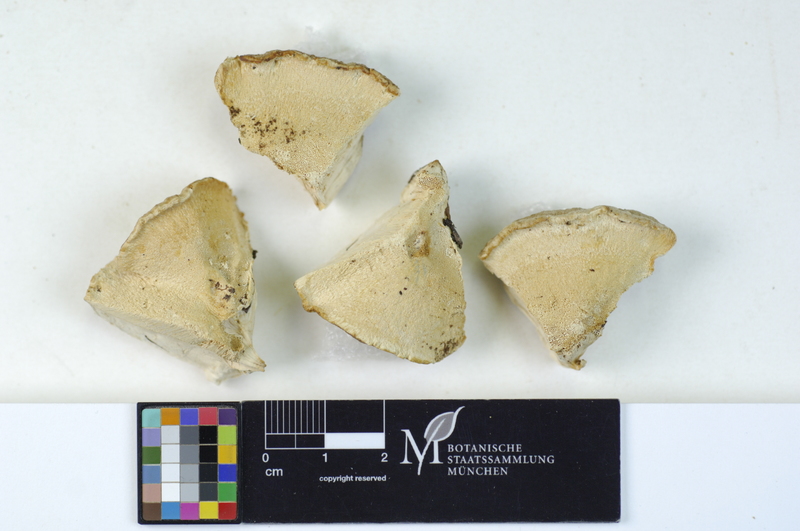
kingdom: Plantae
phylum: Tracheophyta
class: Pinopsida
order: Pinales
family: Pinaceae
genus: Picea
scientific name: Picea
